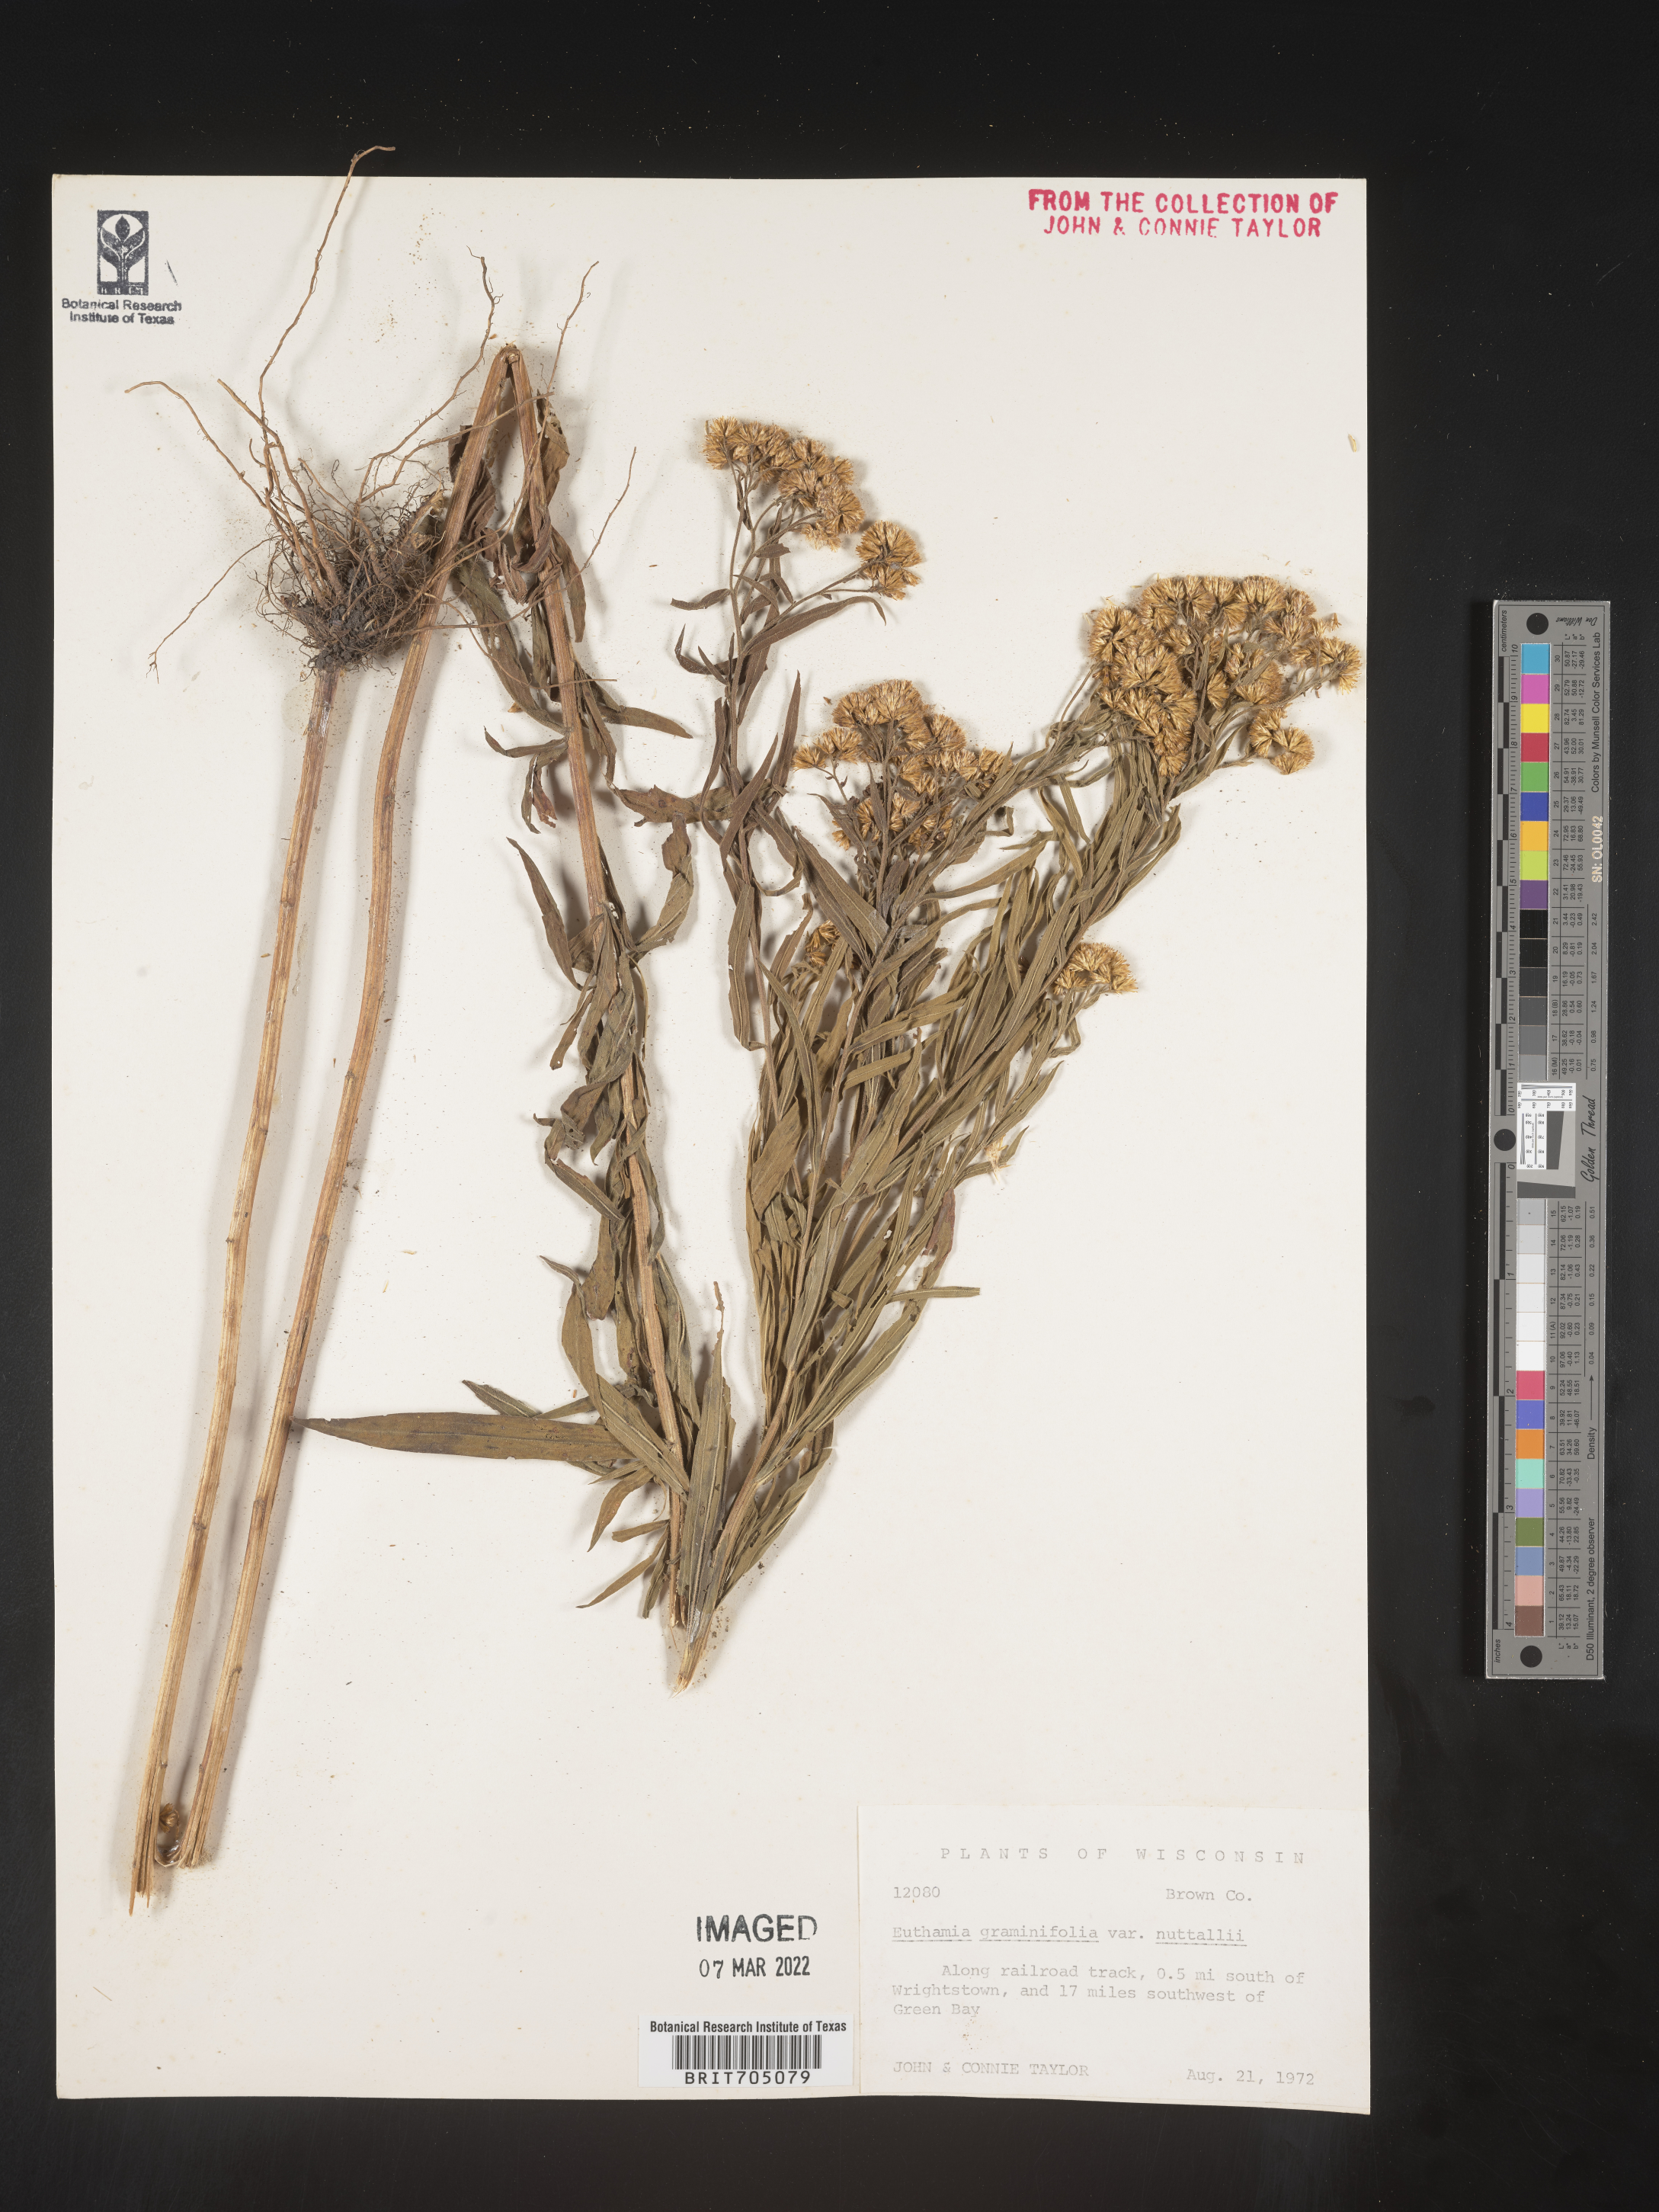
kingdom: Plantae
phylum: Tracheophyta
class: Magnoliopsida
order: Asterales
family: Asteraceae
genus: Euthamia
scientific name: Euthamia
